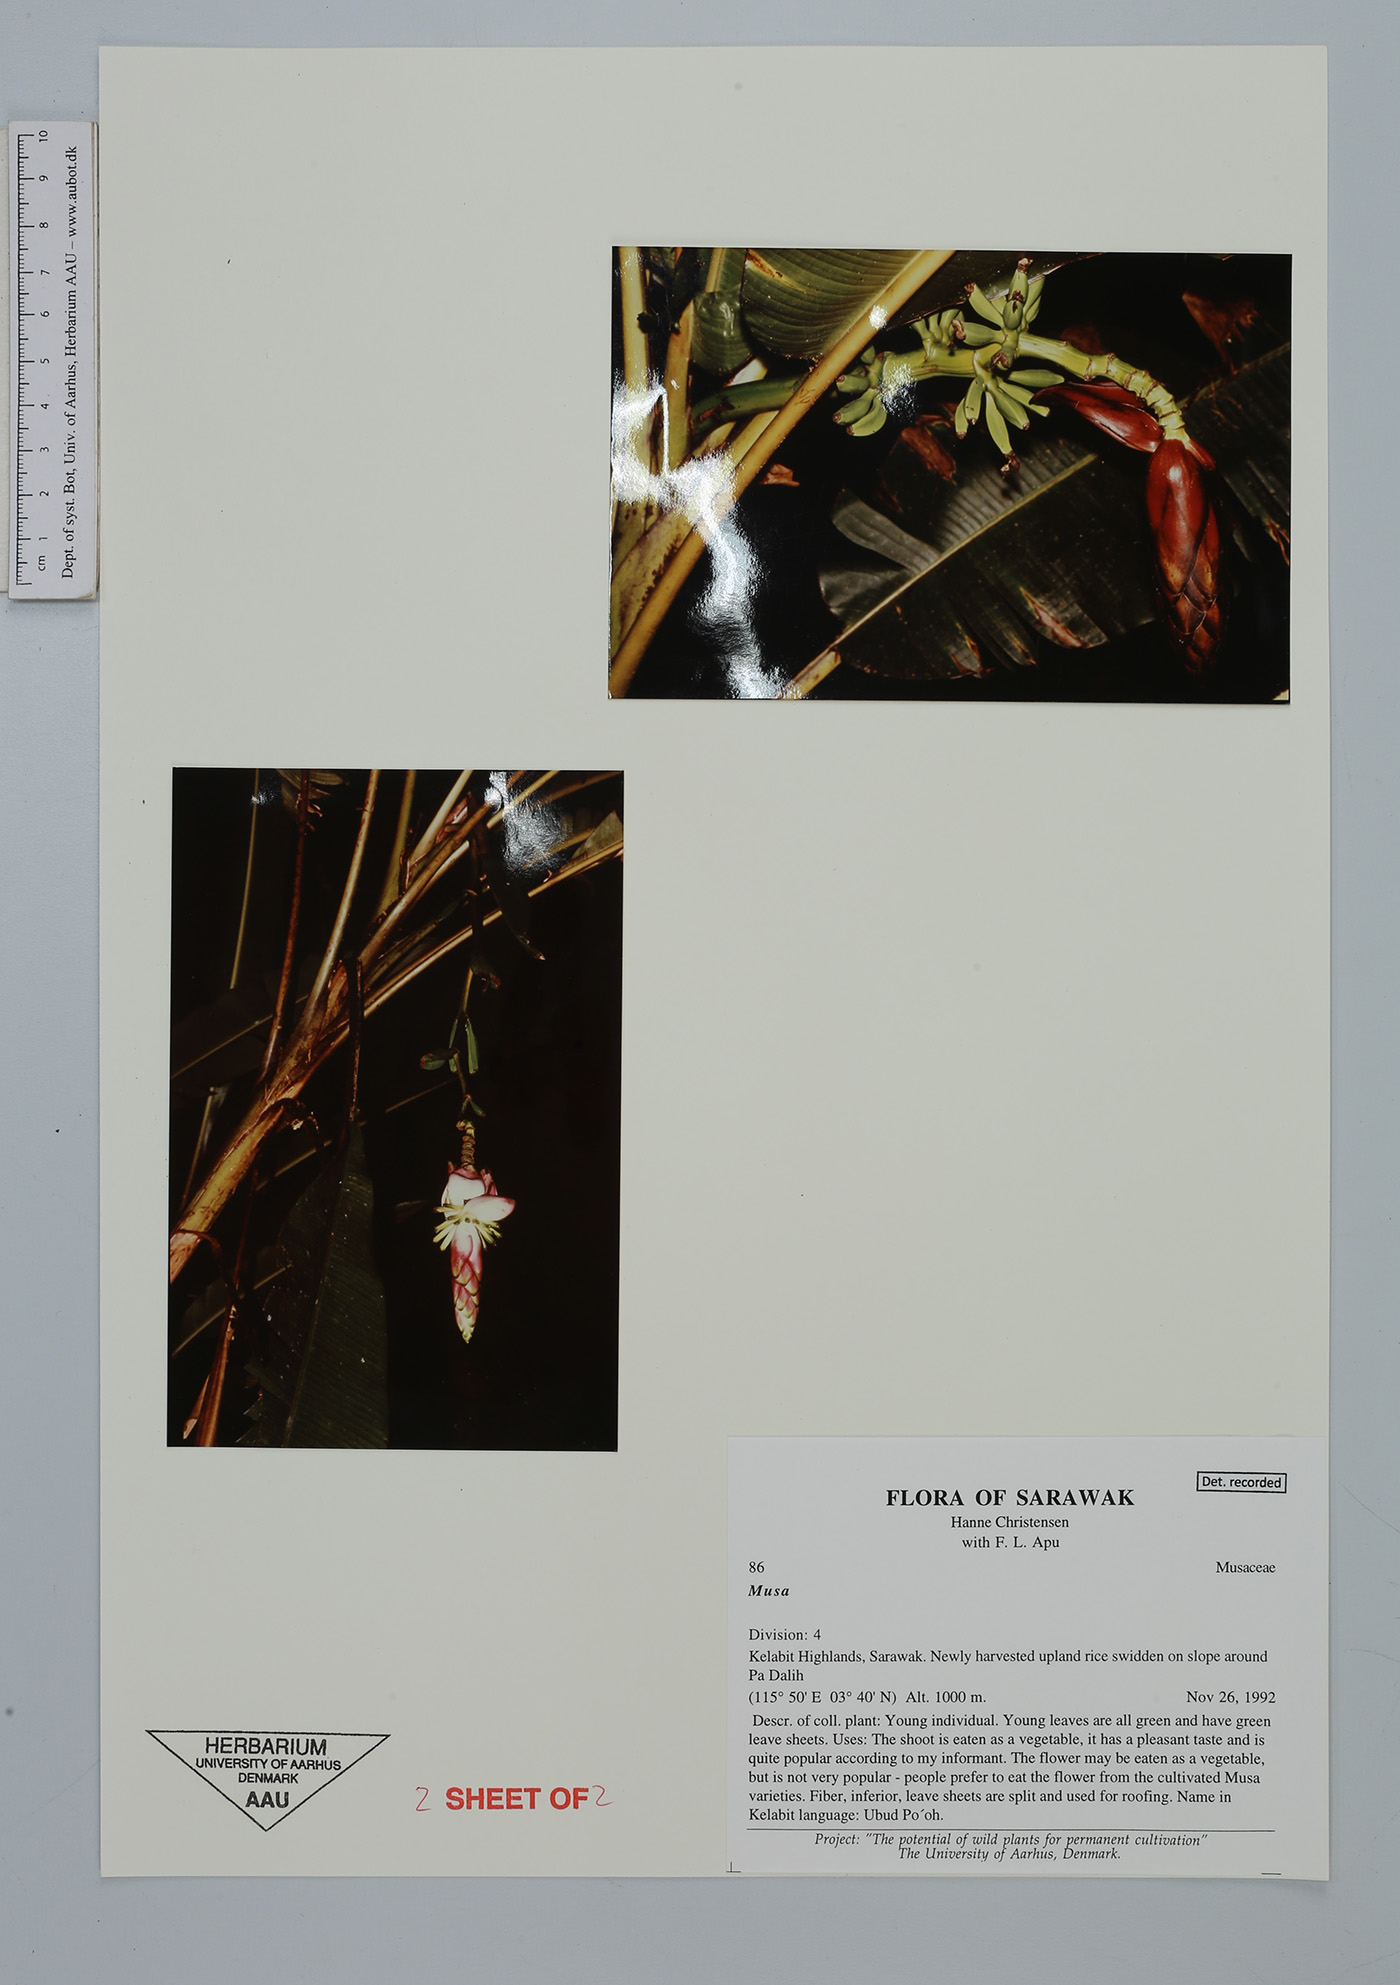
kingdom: Plantae
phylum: Tracheophyta
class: Liliopsida
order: Zingiberales
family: Musaceae
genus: Musa
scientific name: Musa
